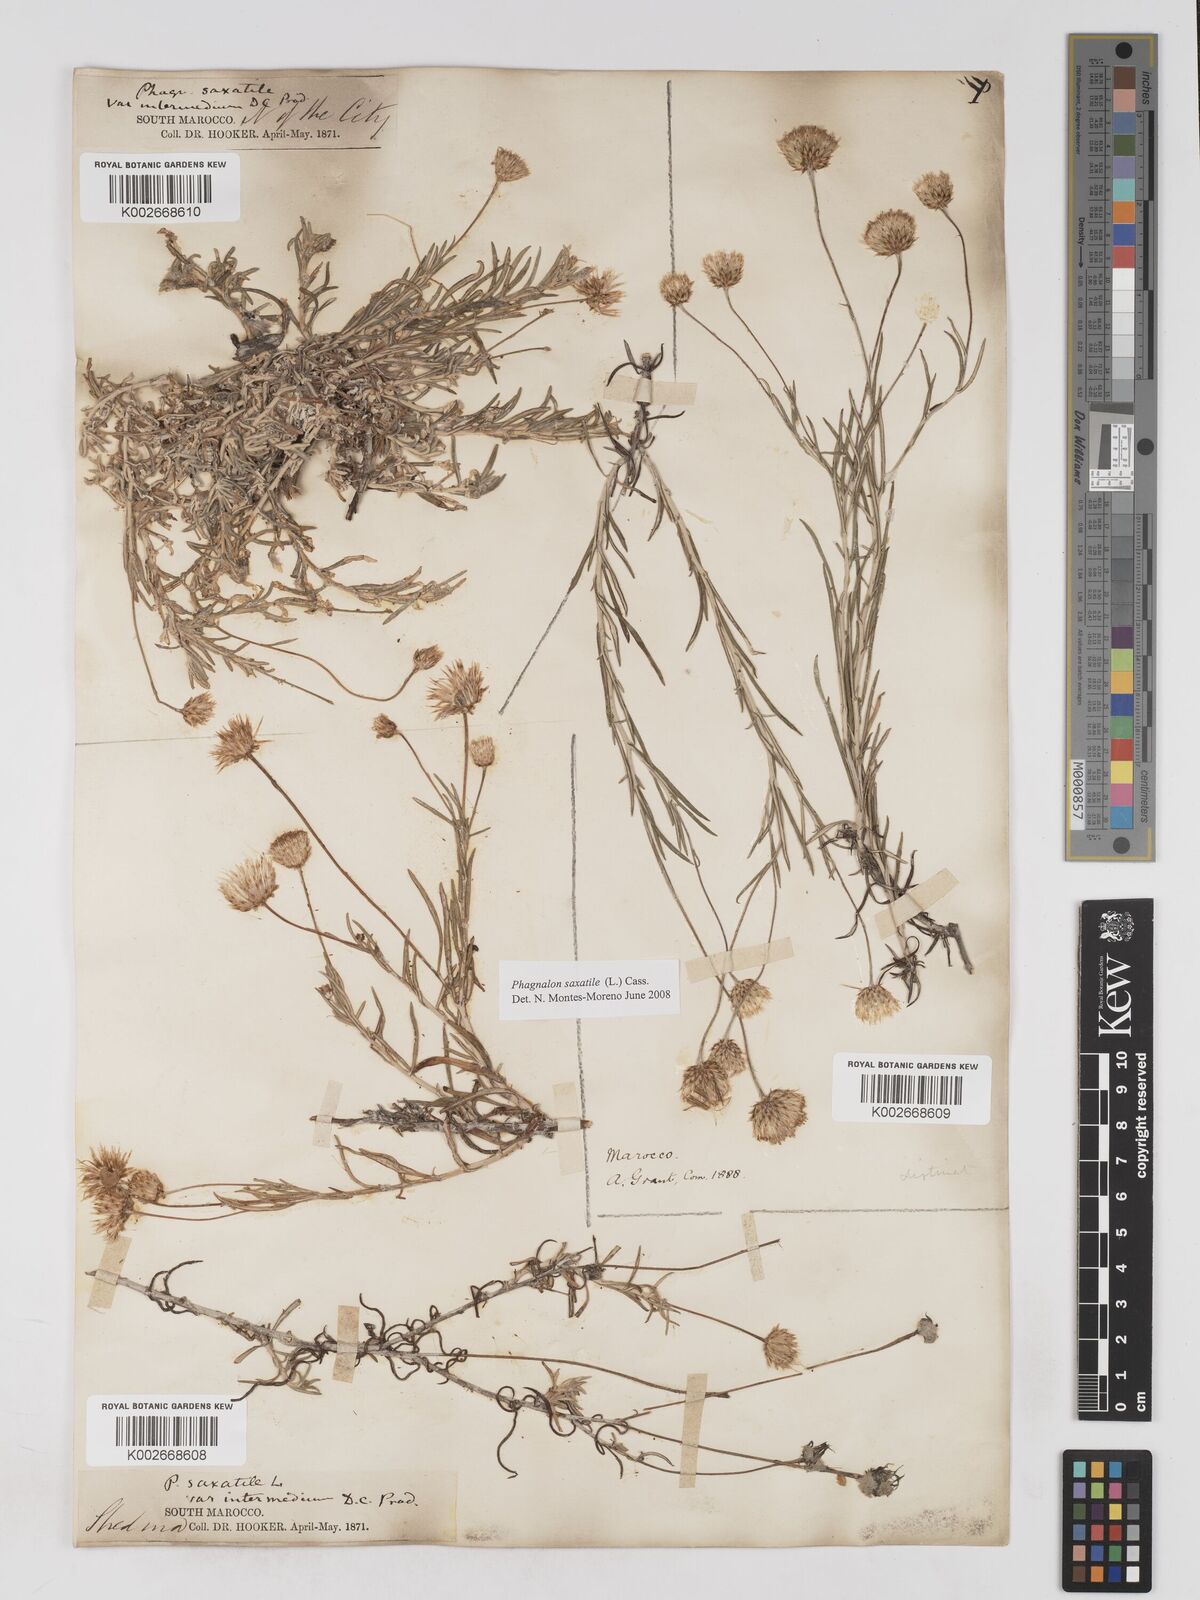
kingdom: Plantae
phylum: Tracheophyta
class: Magnoliopsida
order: Asterales
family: Asteraceae
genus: Phagnalon
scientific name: Phagnalon saxatile
